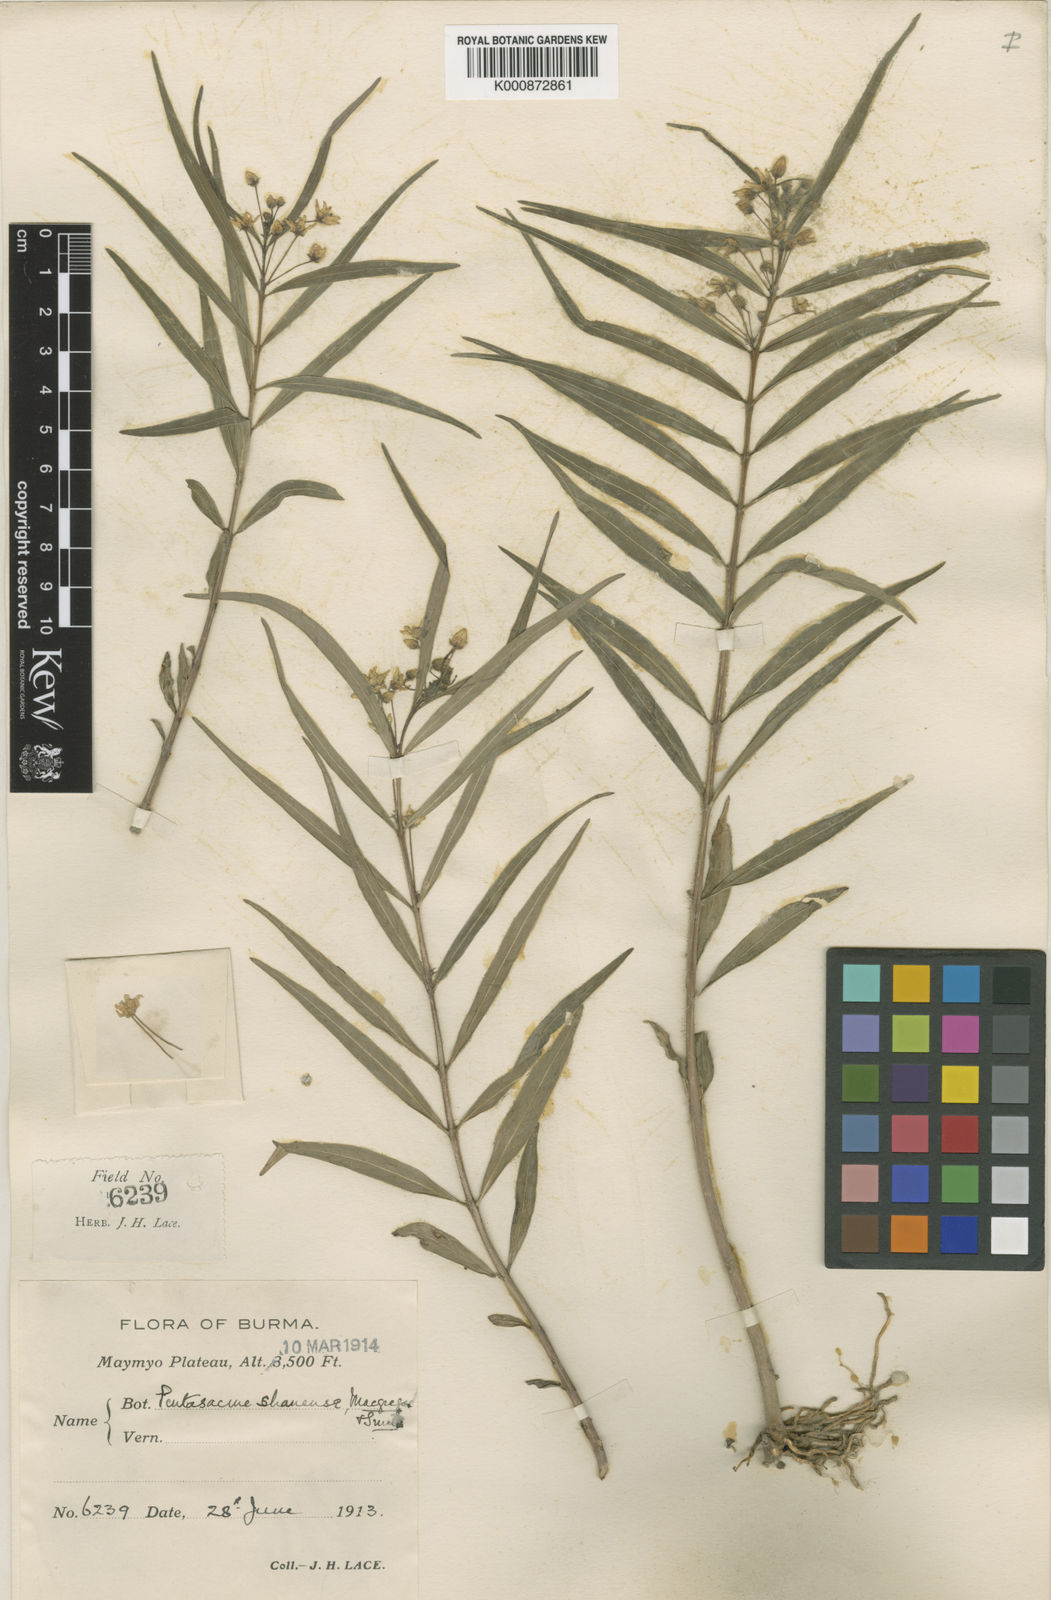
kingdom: Plantae
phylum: Tracheophyta
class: Magnoliopsida
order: Gentianales
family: Apocynaceae
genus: Pentasachme
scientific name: Pentasachme shanense
